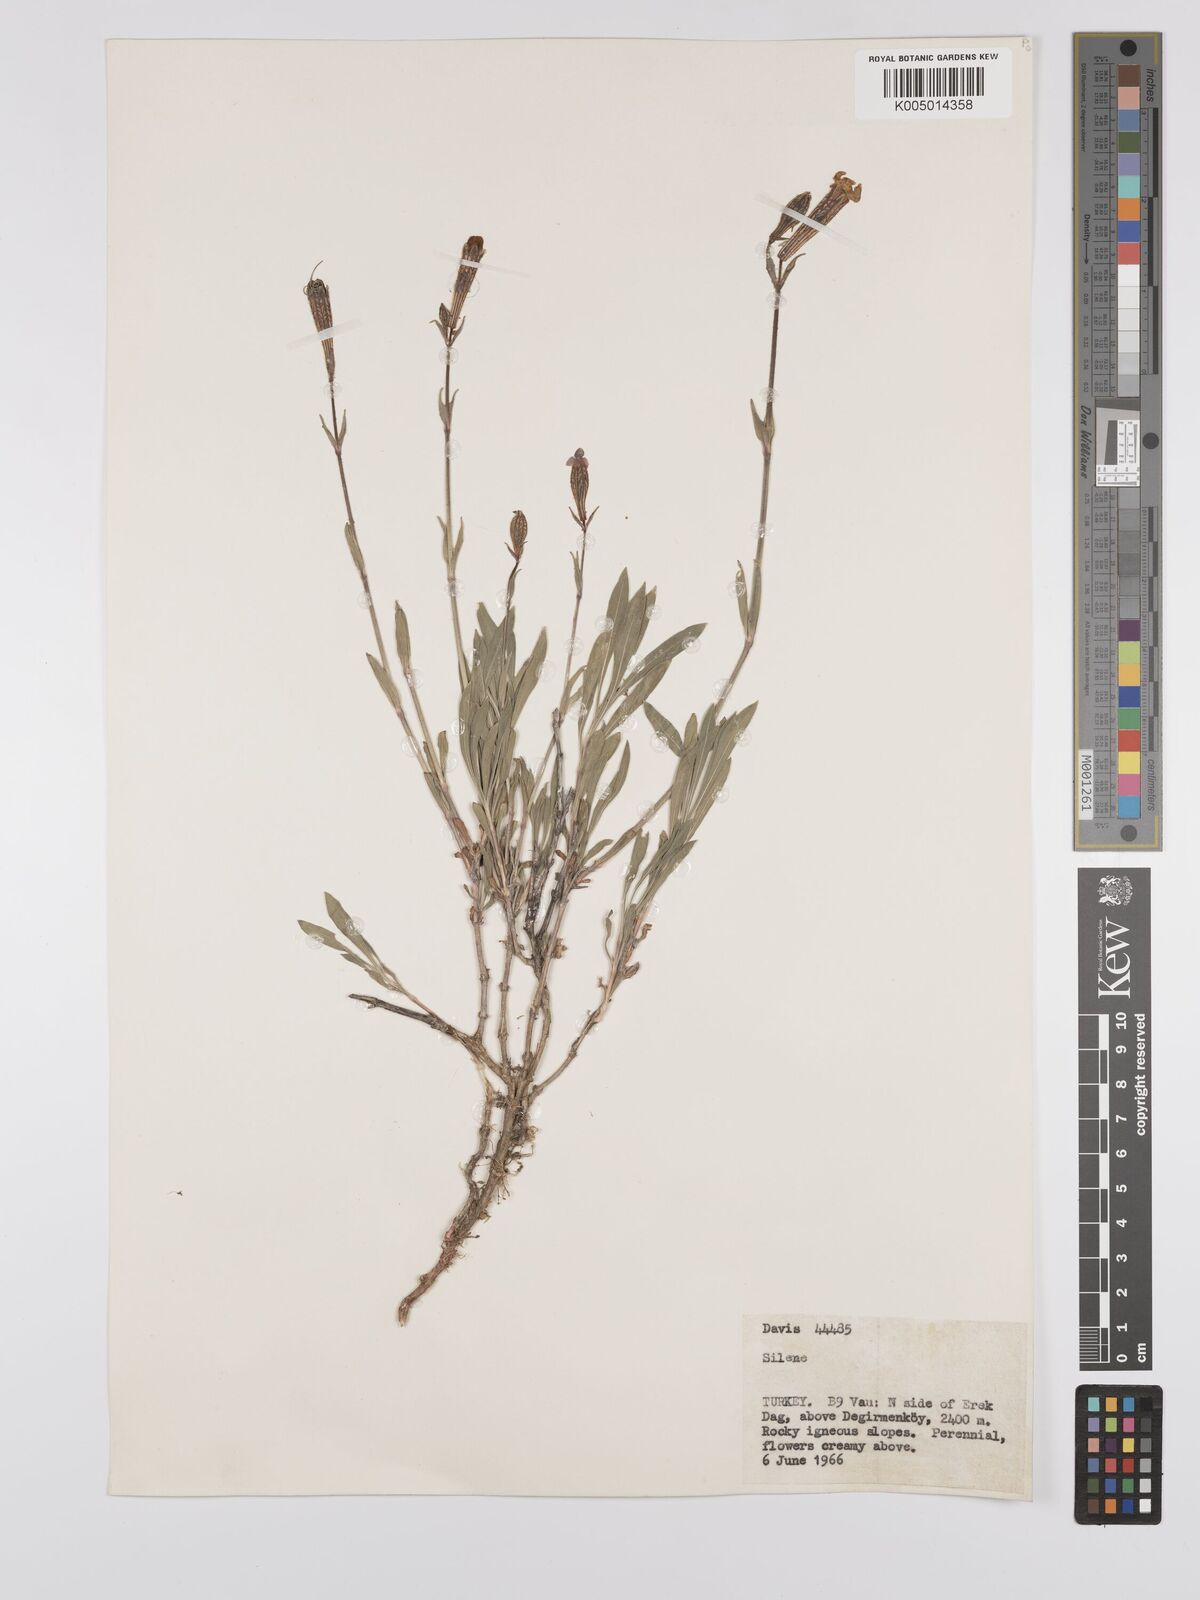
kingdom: Plantae
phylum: Tracheophyta
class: Magnoliopsida
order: Caryophyllales
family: Caryophyllaceae
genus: Silene
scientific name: Silene
